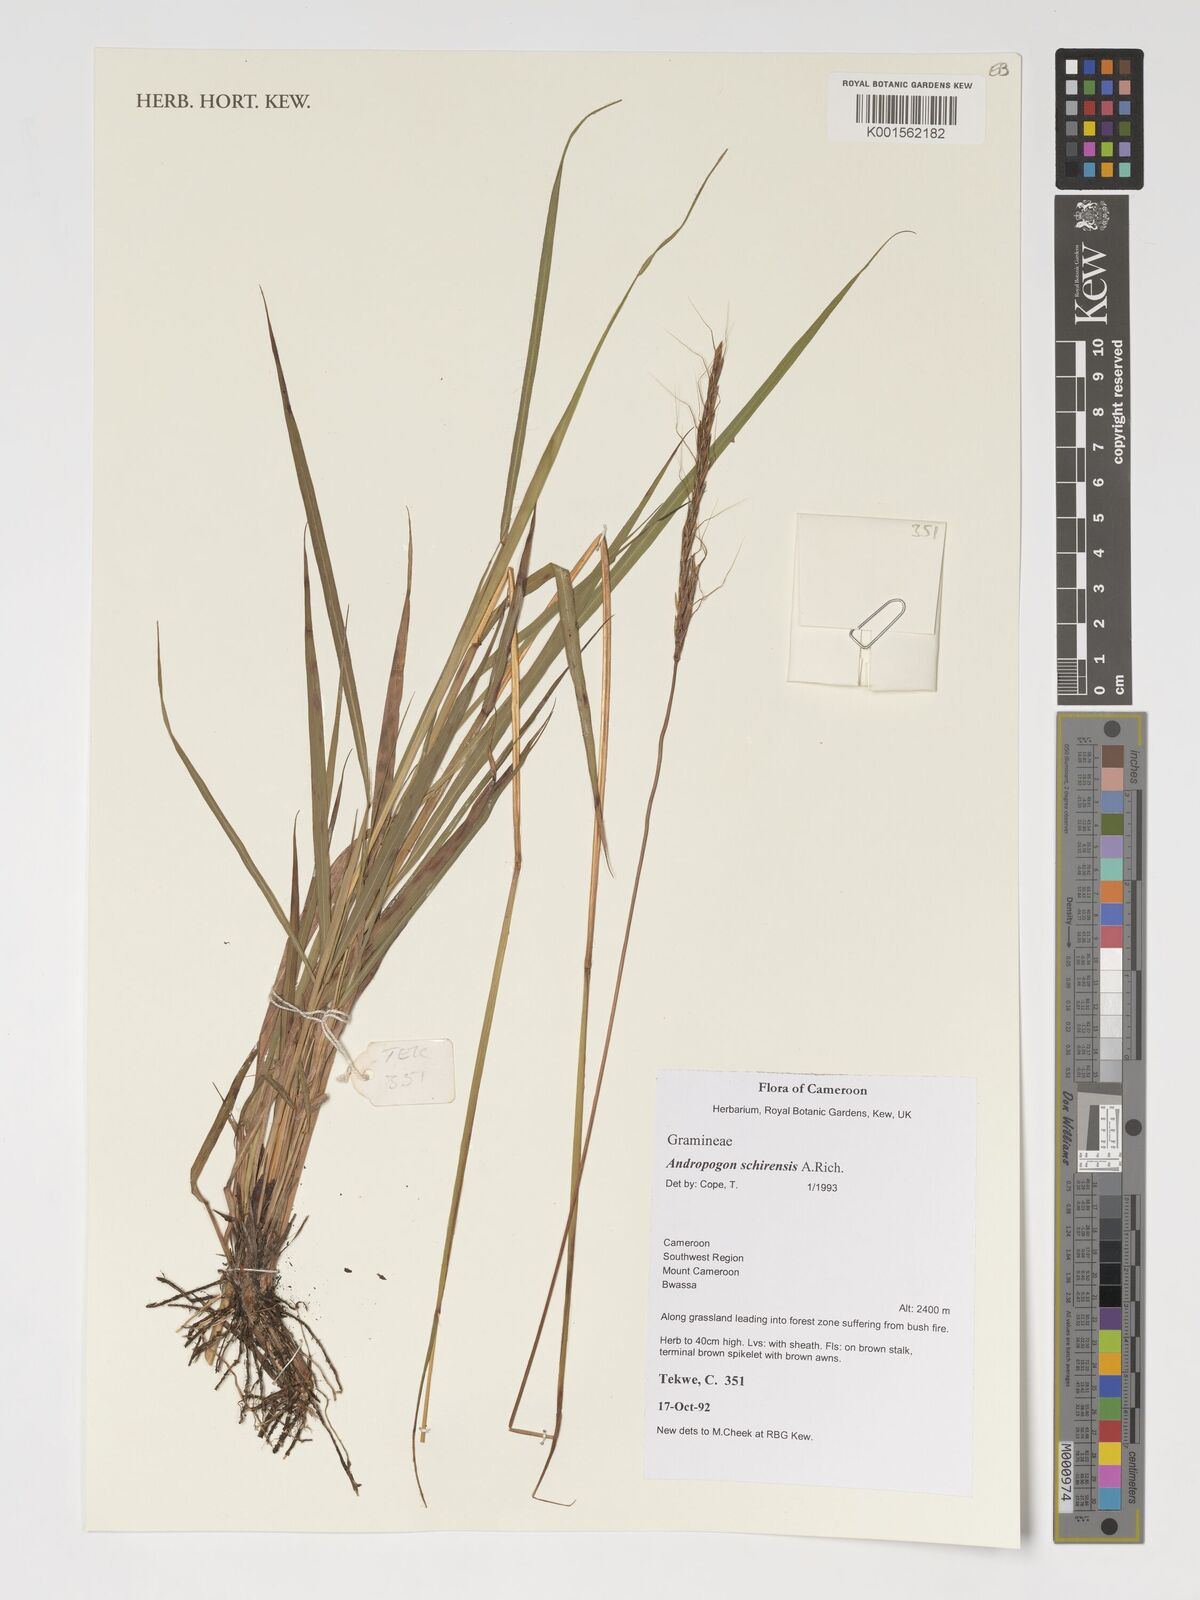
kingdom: Plantae
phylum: Tracheophyta
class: Liliopsida
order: Poales
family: Poaceae
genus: Andropogon
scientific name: Andropogon schirensis
